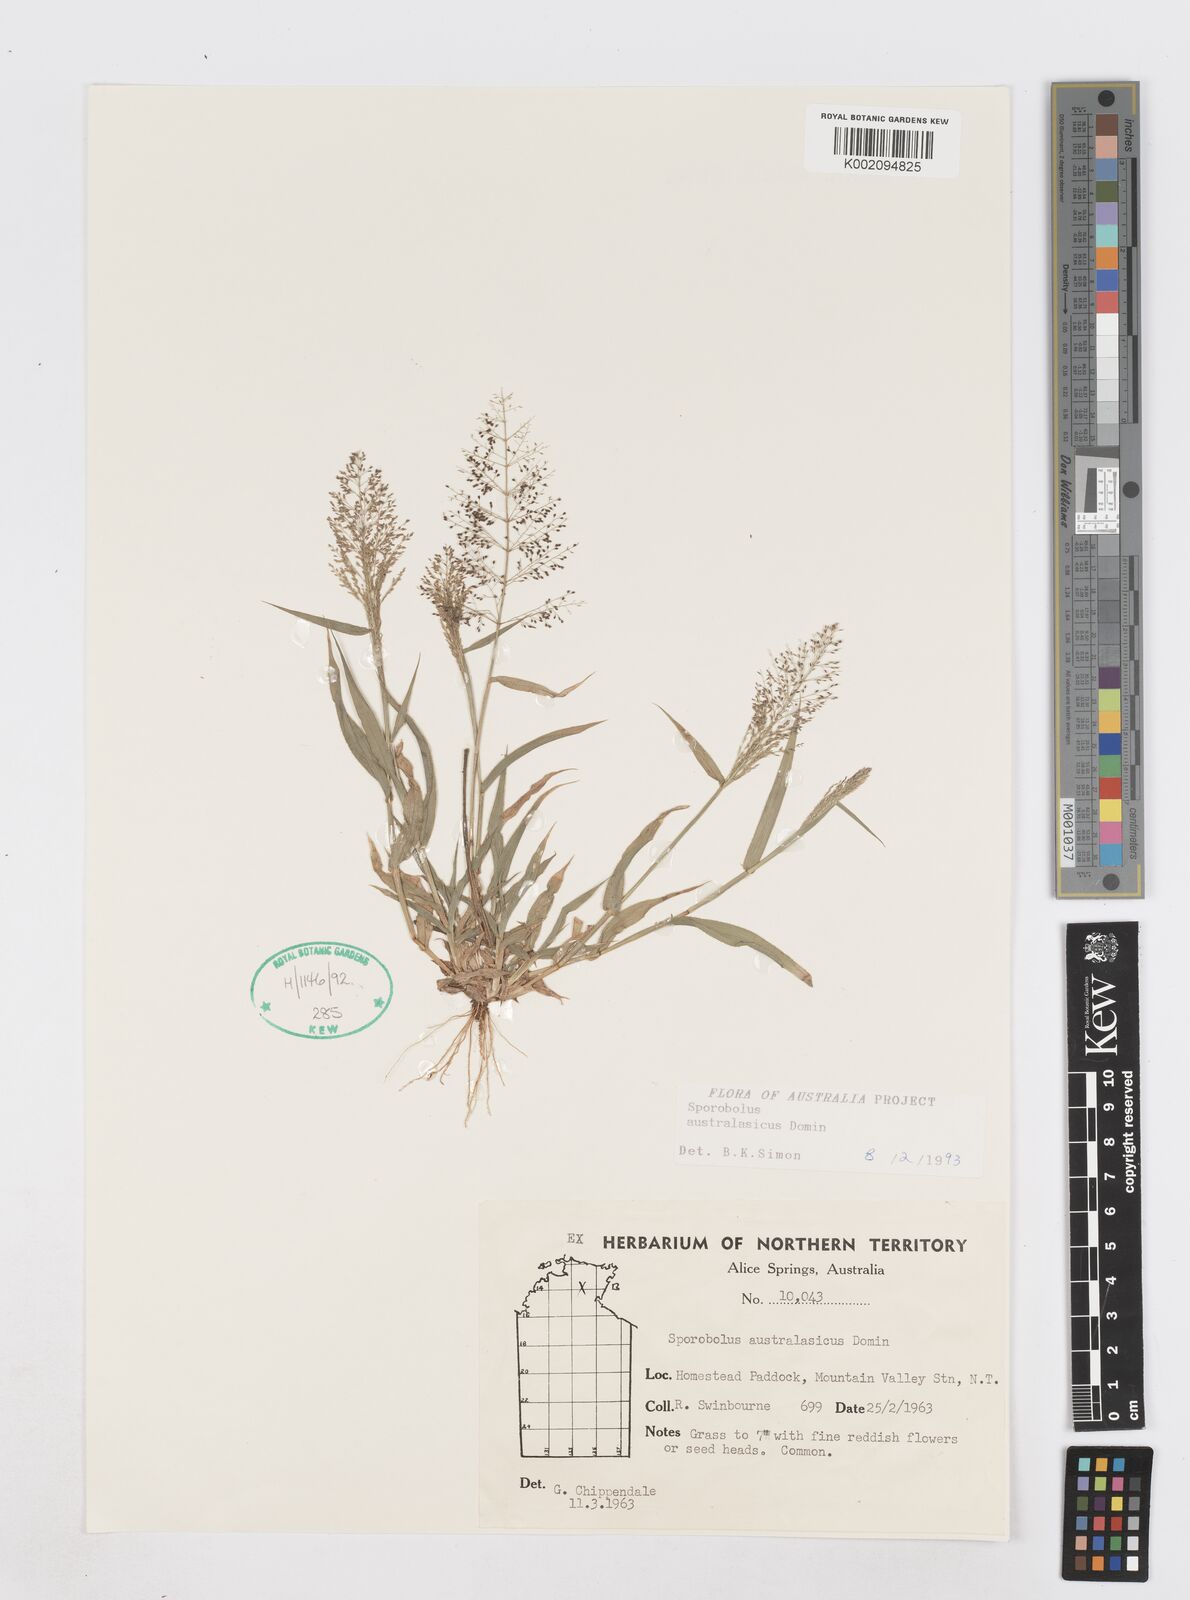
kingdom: Plantae
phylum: Tracheophyta
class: Liliopsida
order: Poales
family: Poaceae
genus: Sporobolus
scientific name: Sporobolus australasicus
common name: Australian dropseed
